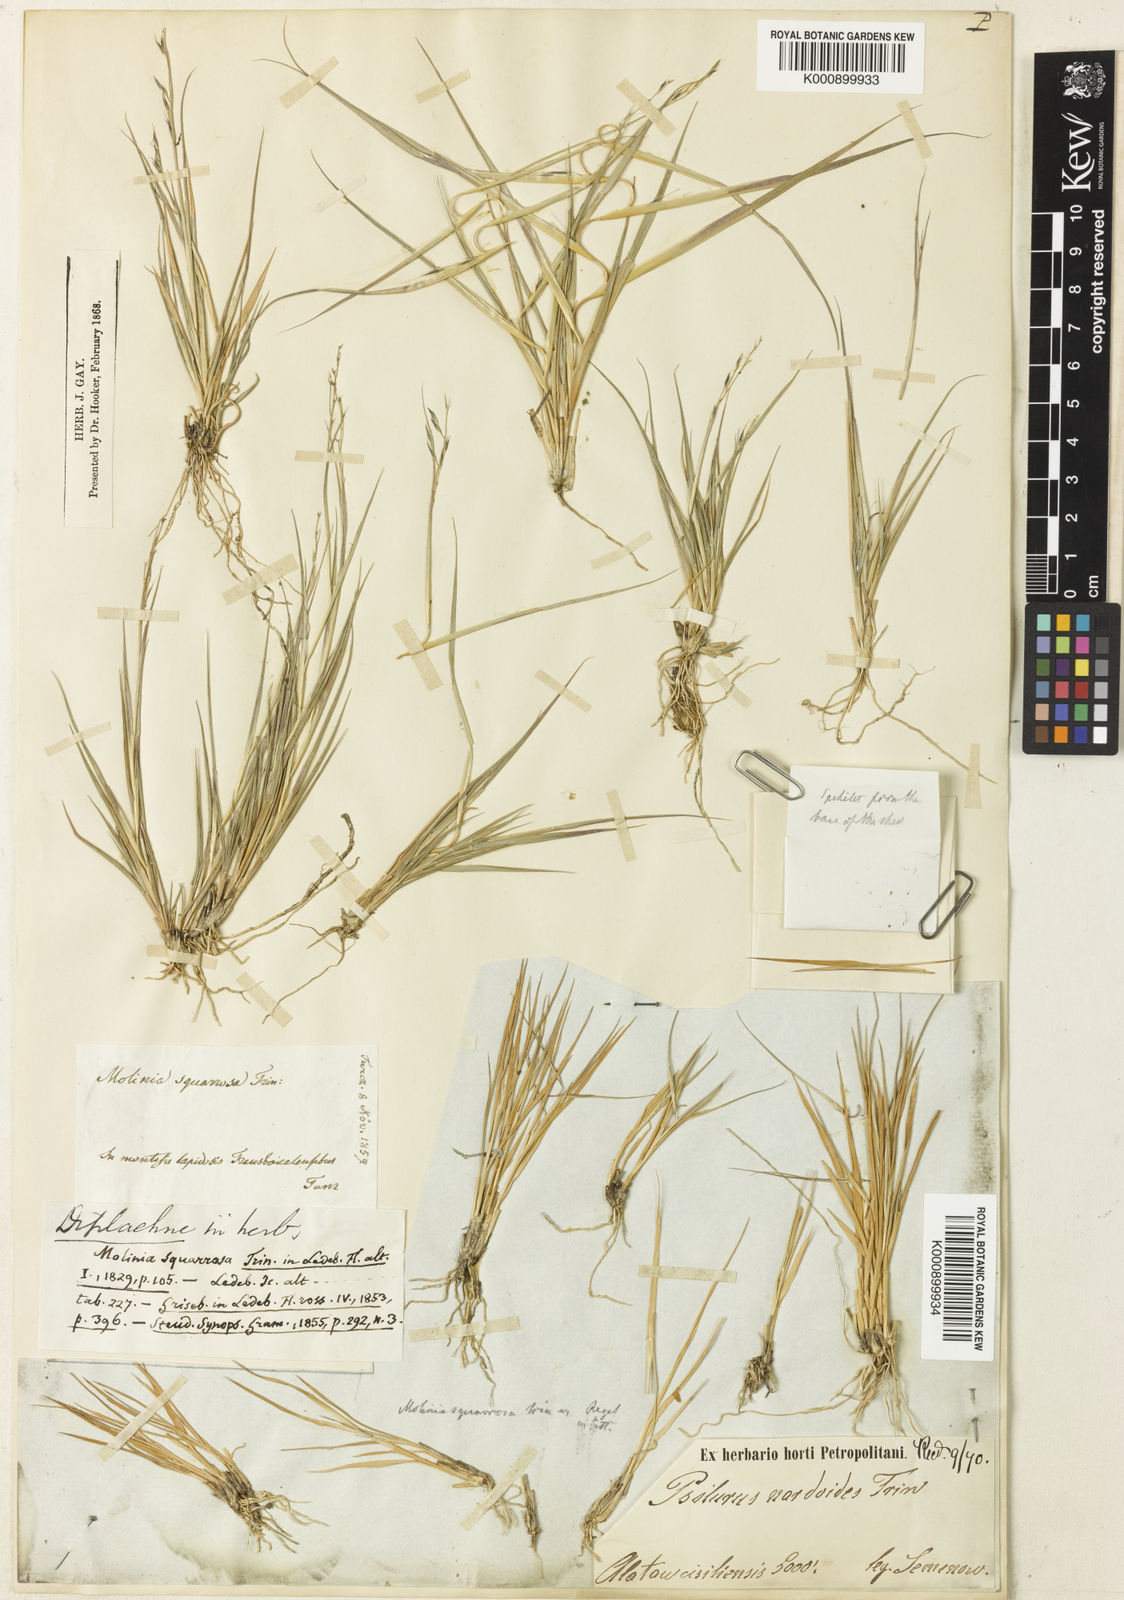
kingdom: Plantae
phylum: Tracheophyta
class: Liliopsida
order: Poales
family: Poaceae
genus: Cleistogenes
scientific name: Cleistogenes squarrosa
